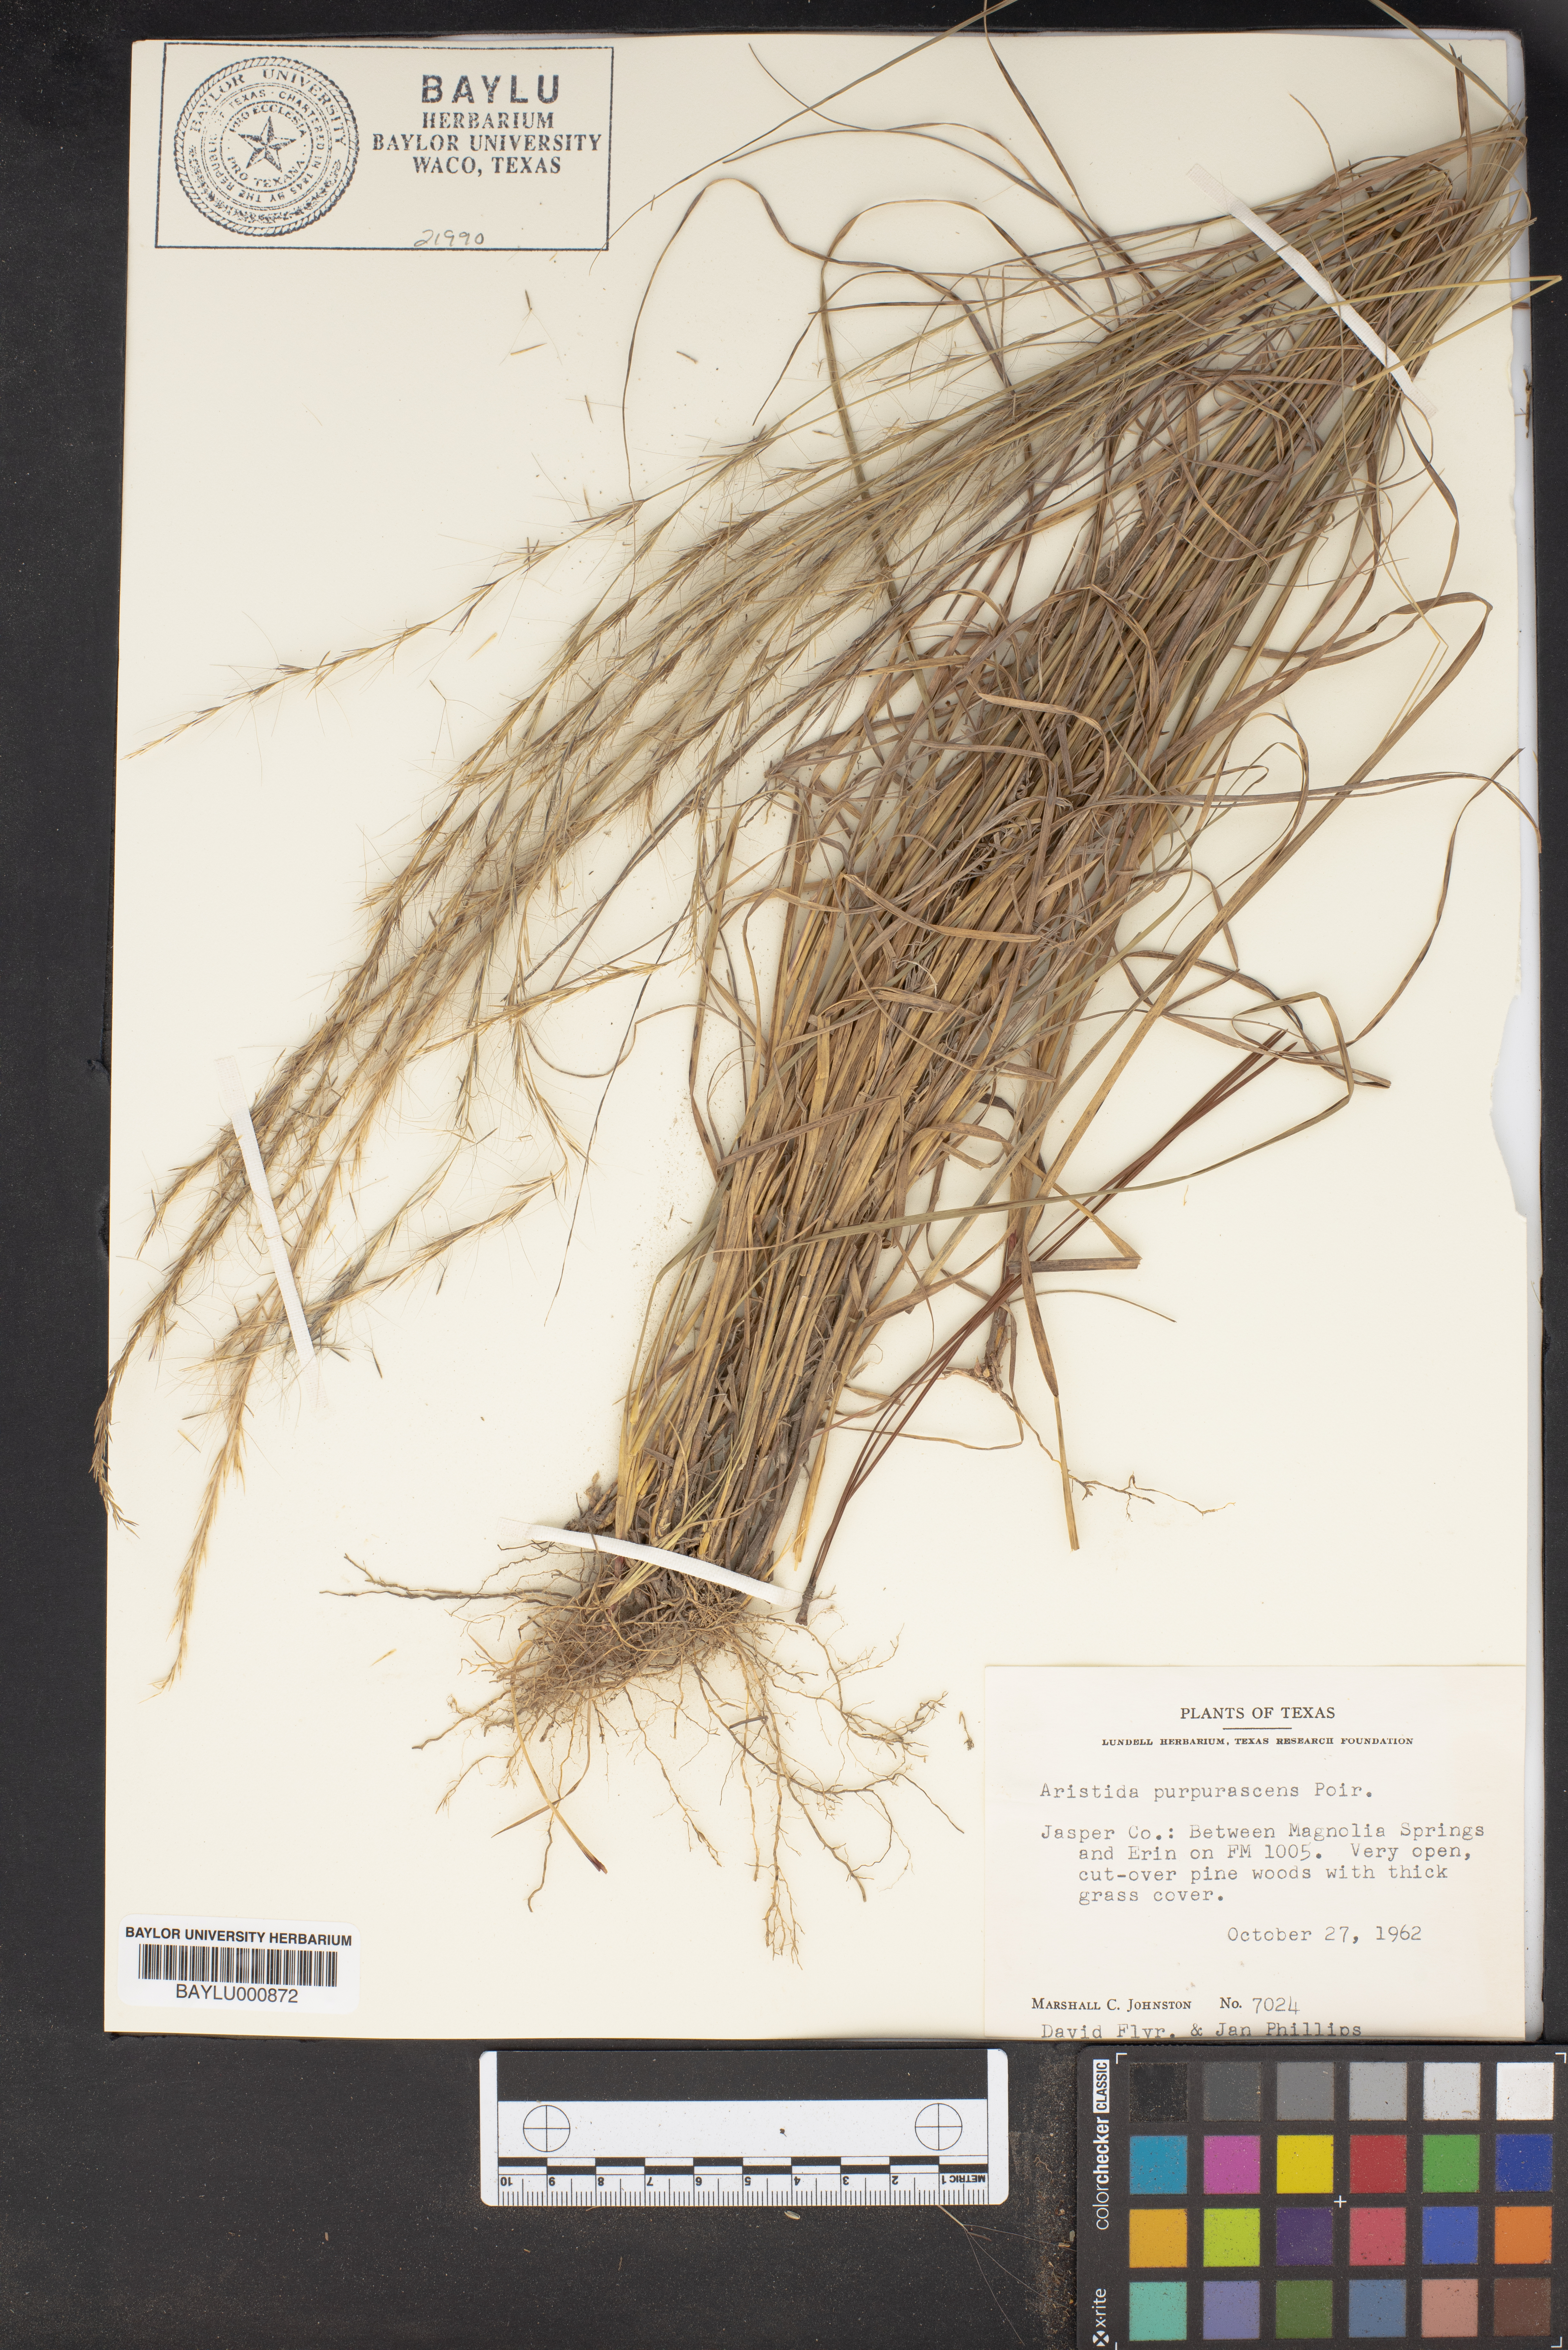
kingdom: Plantae
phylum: Tracheophyta
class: Liliopsida
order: Poales
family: Poaceae
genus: Aristida
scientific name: Aristida purpurascens
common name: Arrow-feather
